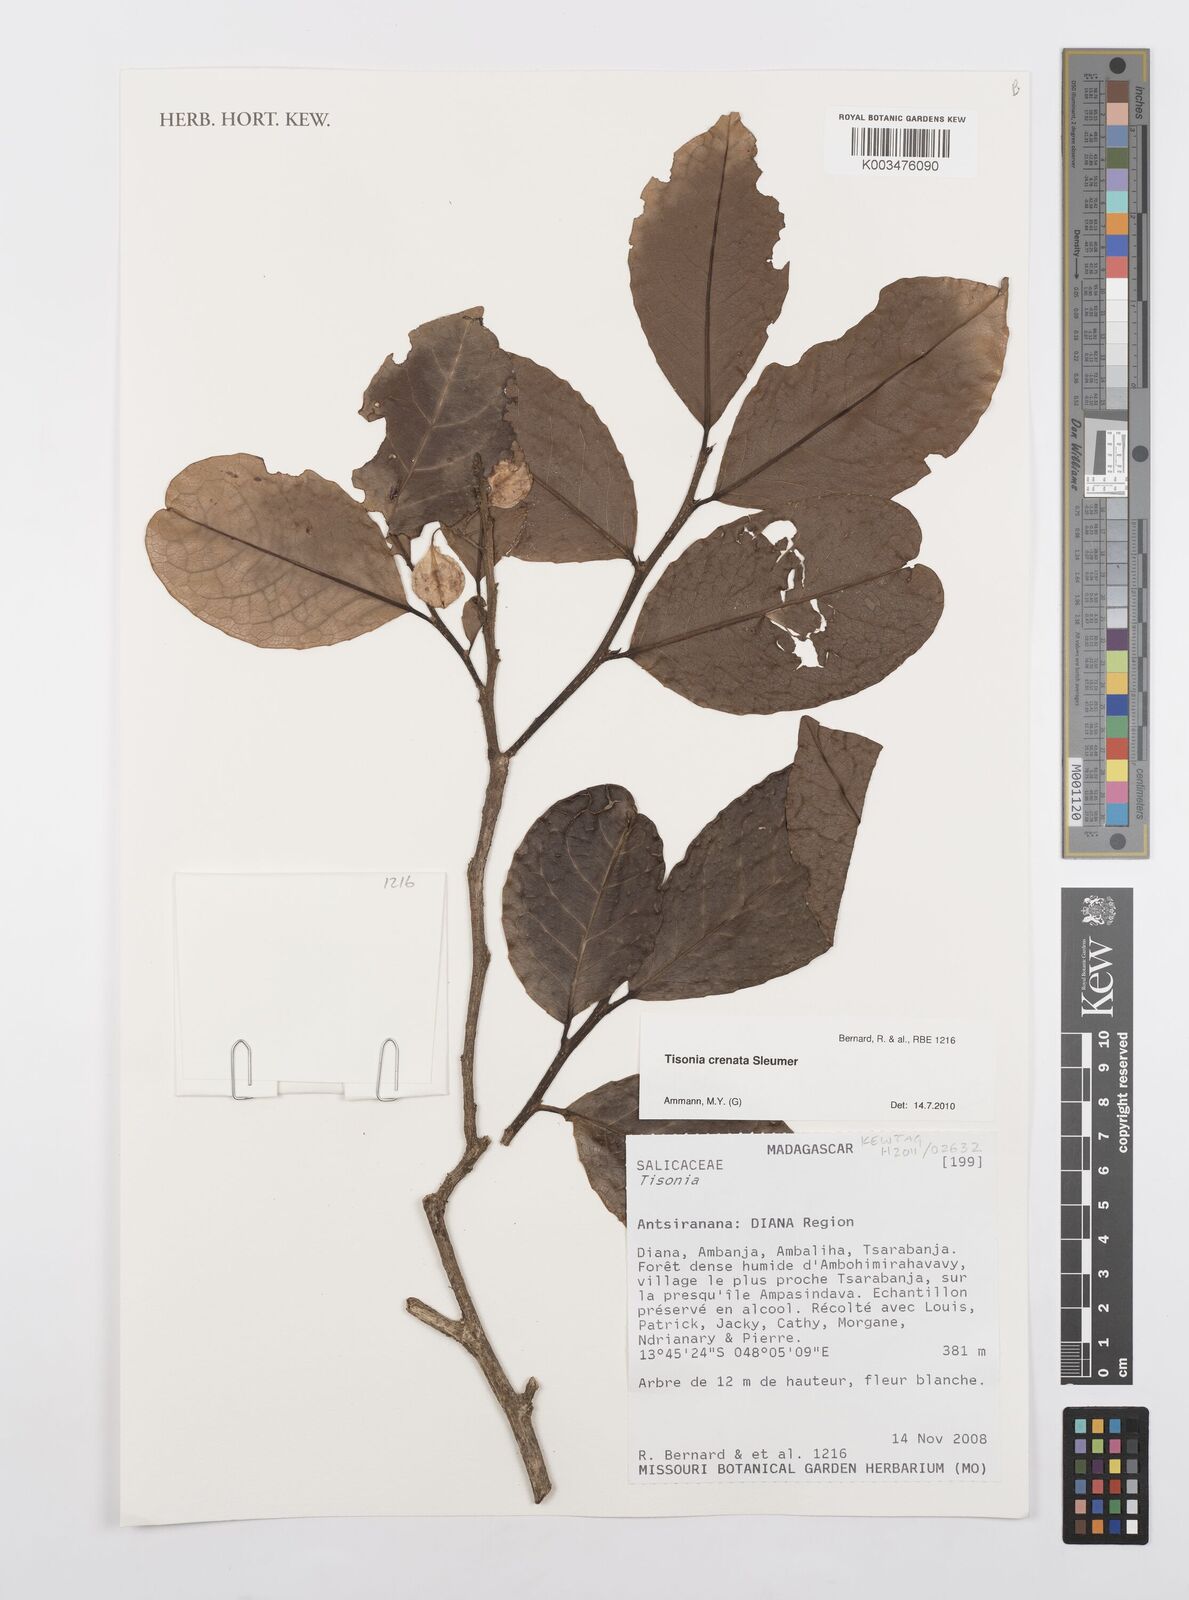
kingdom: Plantae
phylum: Tracheophyta
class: Magnoliopsida
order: Malpighiales
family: Salicaceae
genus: Tisonia
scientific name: Tisonia baronii
